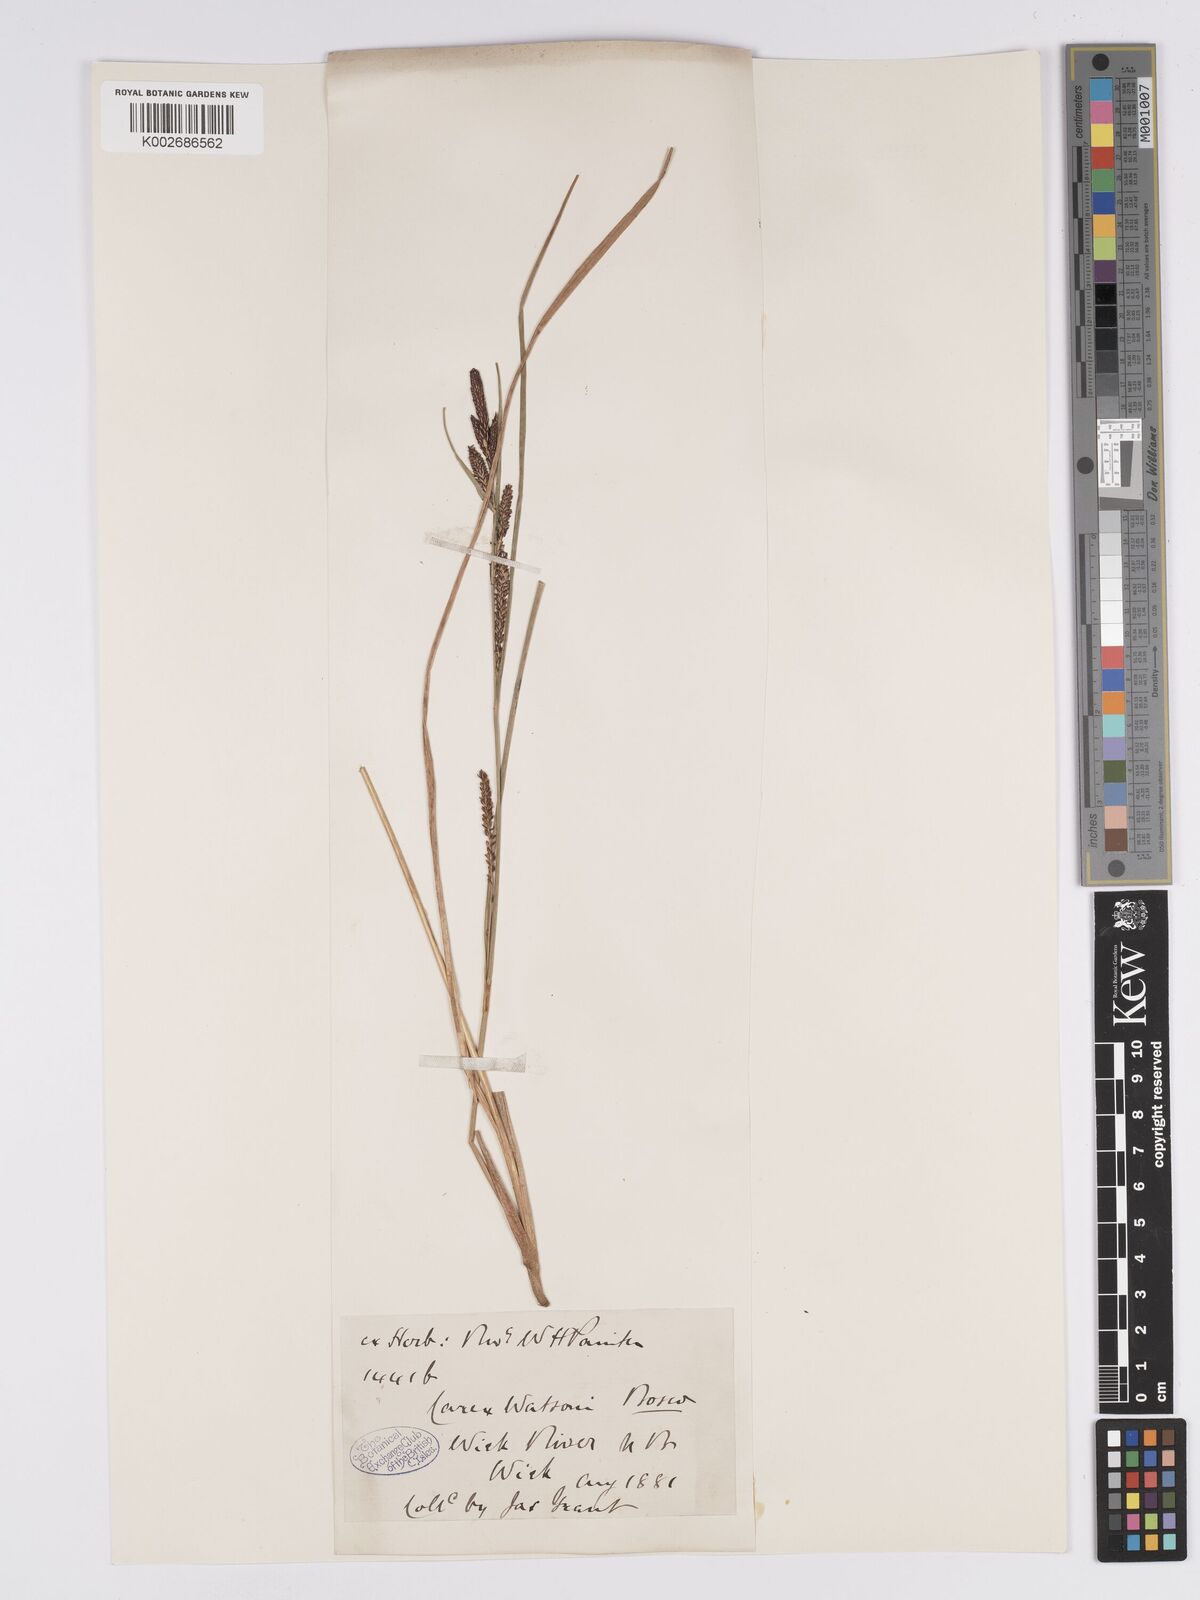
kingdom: Plantae
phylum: Tracheophyta
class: Liliopsida
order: Poales
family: Cyperaceae
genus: Carex
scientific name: Carex aquatilis
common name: Water sedge
